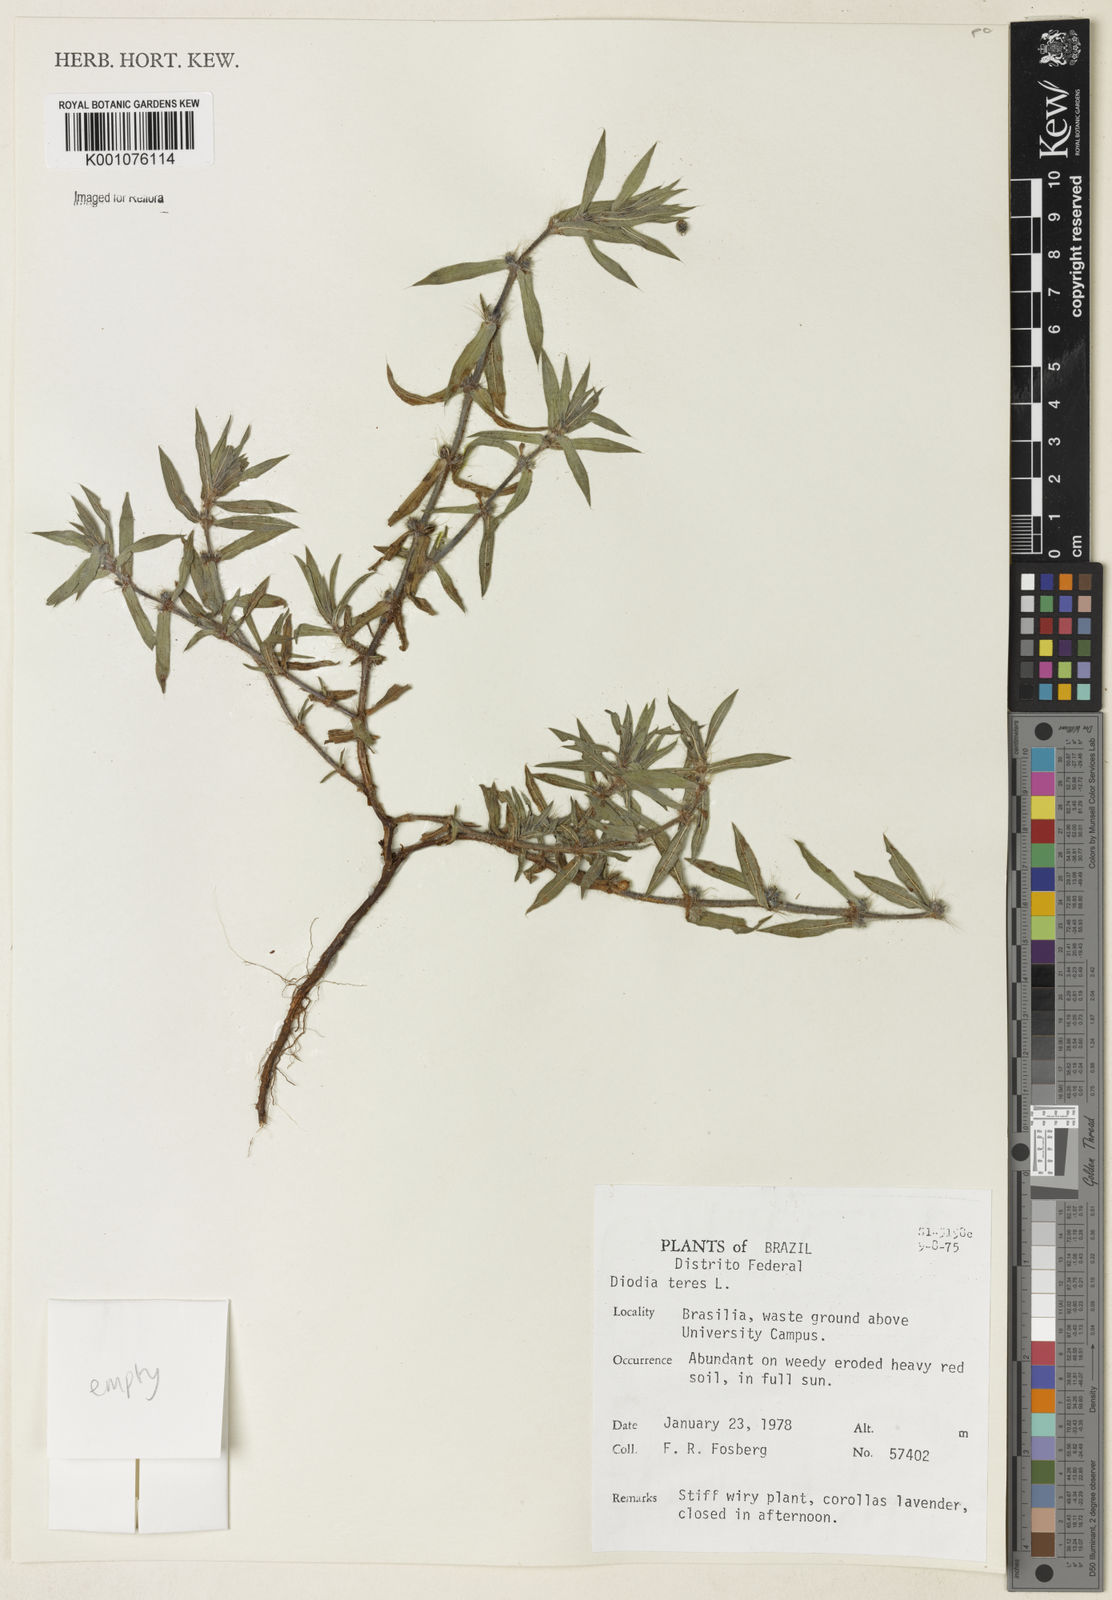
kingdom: Plantae
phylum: Tracheophyta
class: Magnoliopsida
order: Gentianales
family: Rubiaceae
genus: Hexasepalum
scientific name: Hexasepalum teres
